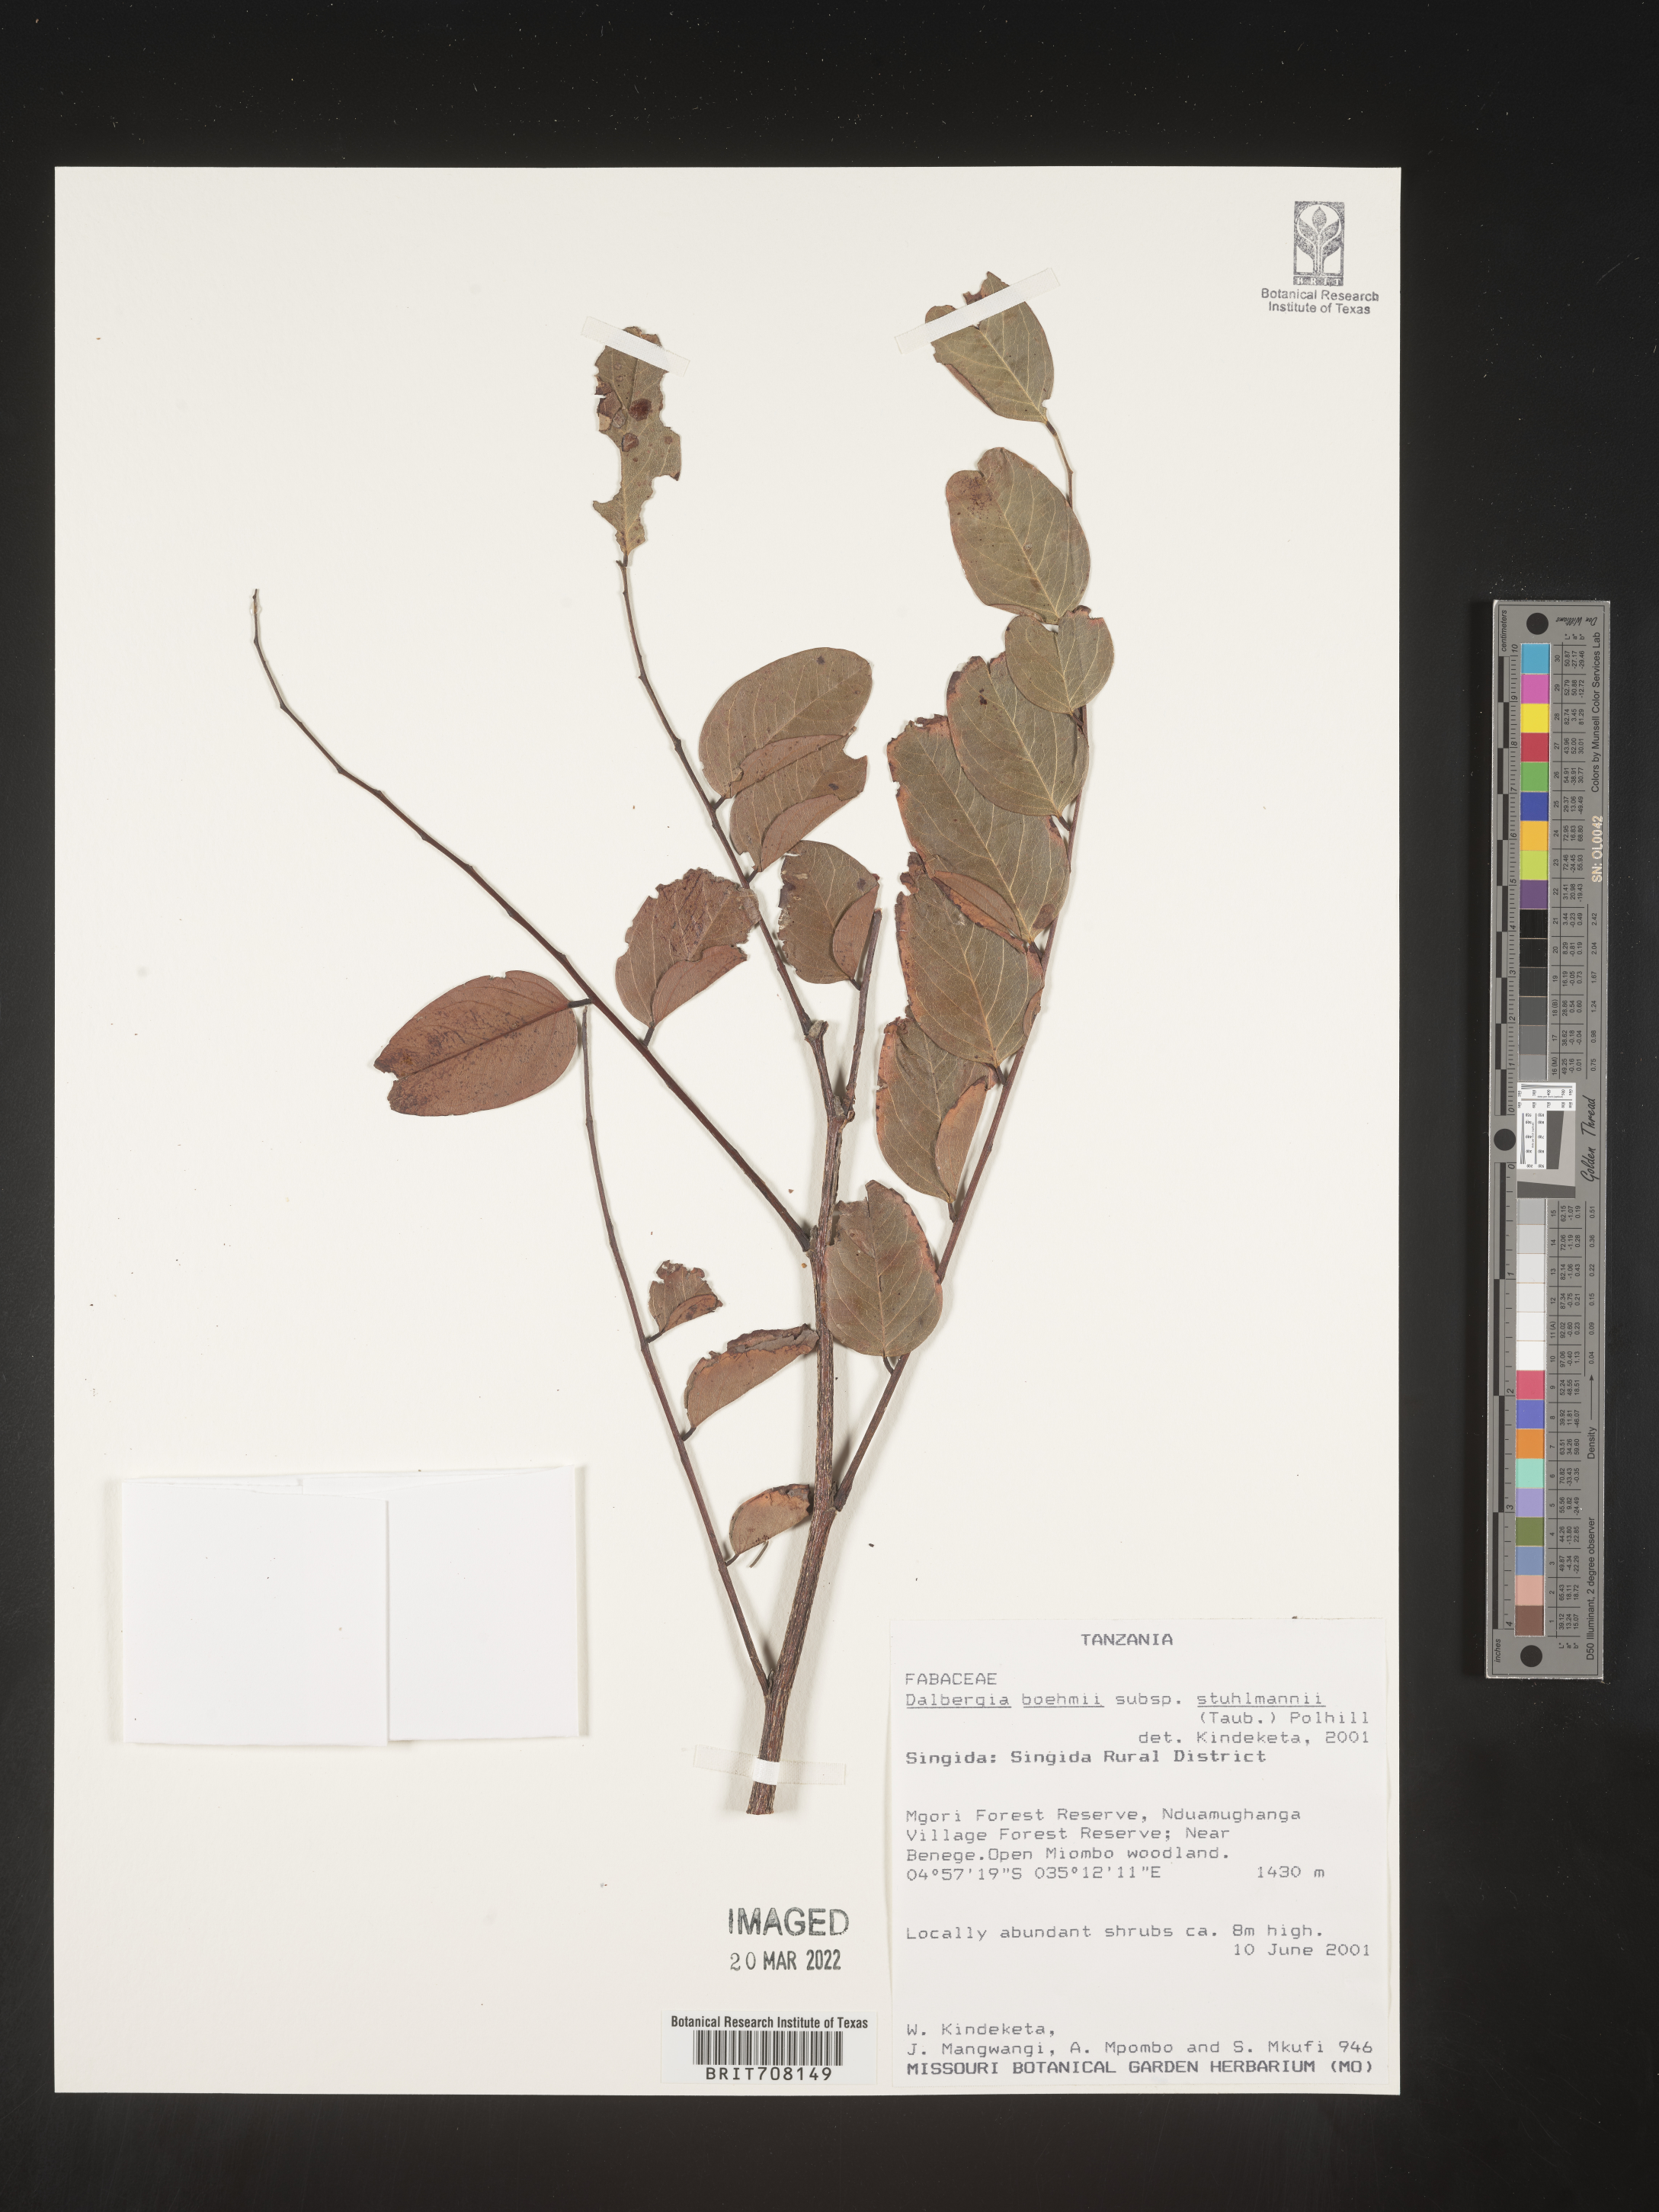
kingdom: Plantae
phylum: Tracheophyta
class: Magnoliopsida
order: Fabales
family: Fabaceae
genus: Dalbergia
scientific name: Dalbergia
